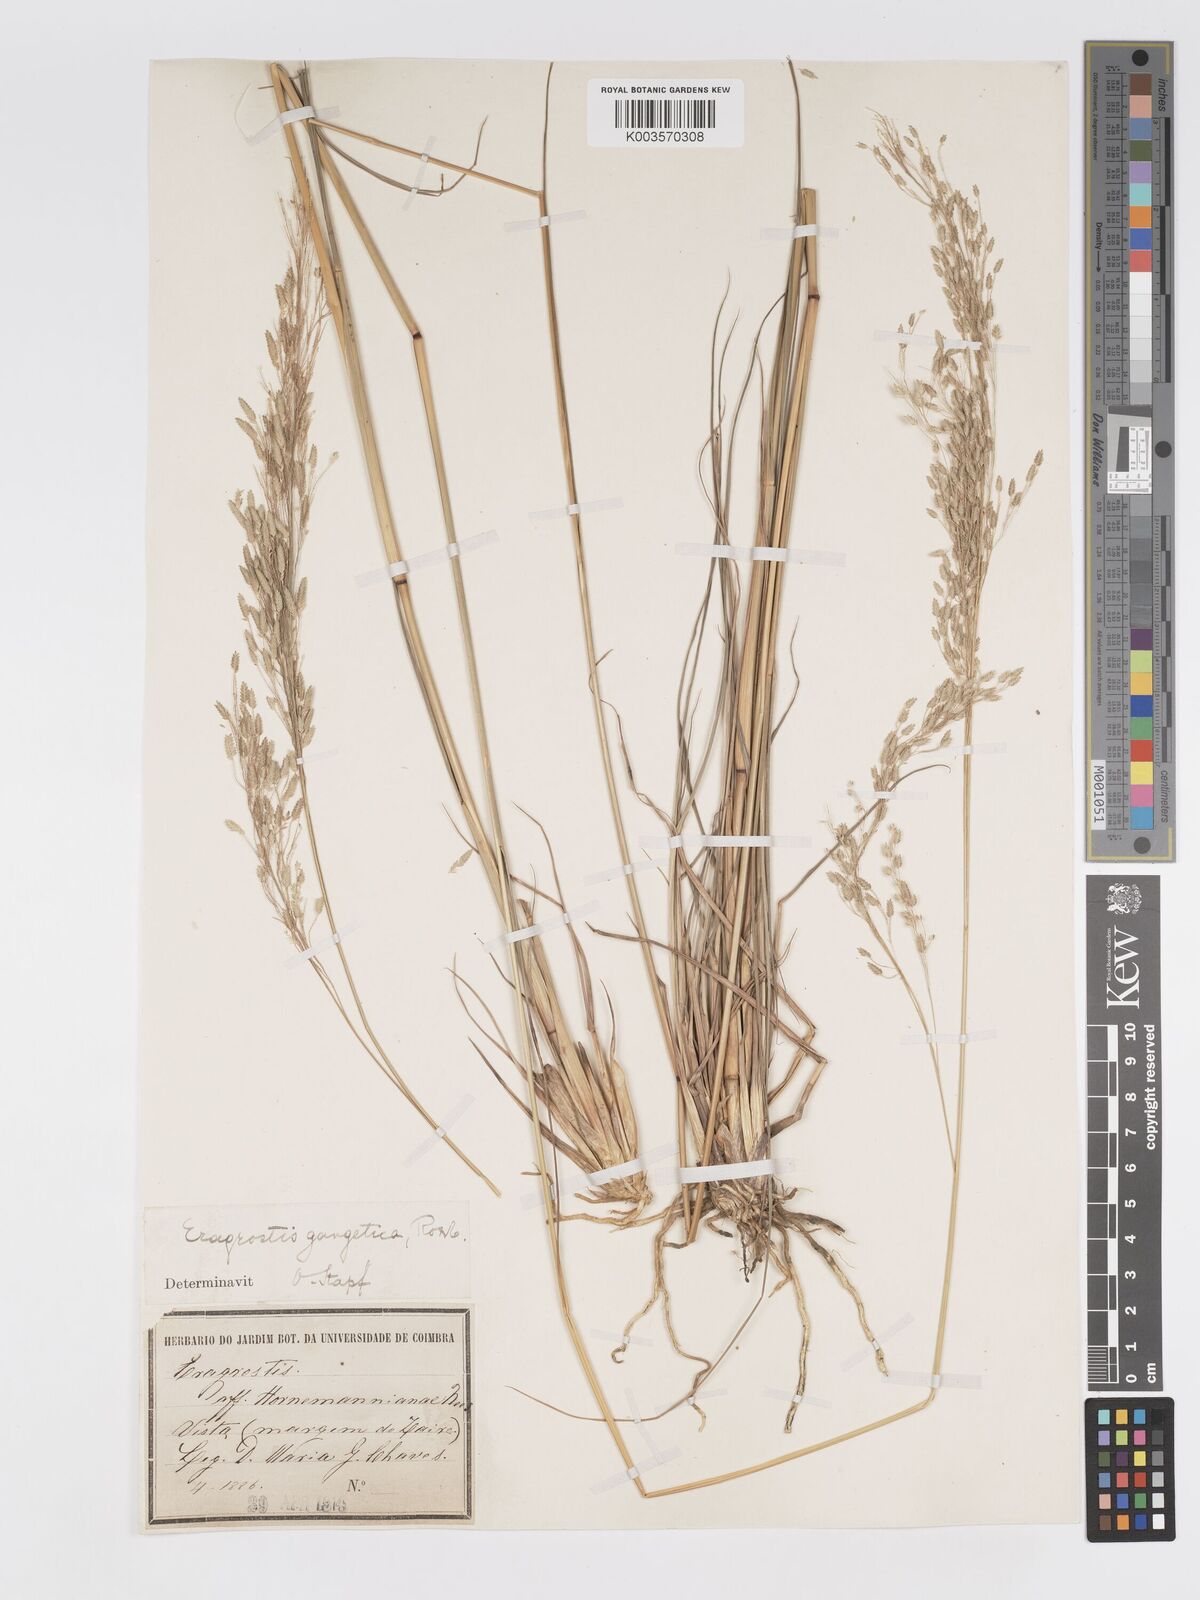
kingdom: Plantae
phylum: Tracheophyta
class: Liliopsida
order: Poales
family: Poaceae
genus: Eragrostis
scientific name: Eragrostis atrovirens
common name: Thalia lovegrass
